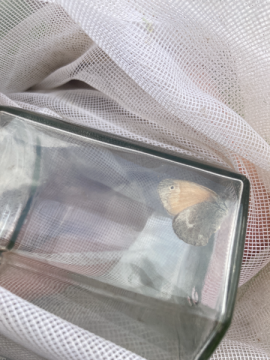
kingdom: Animalia
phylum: Arthropoda
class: Insecta
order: Lepidoptera
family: Nymphalidae
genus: Coenonympha
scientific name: Coenonympha tullia
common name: Large Heath
